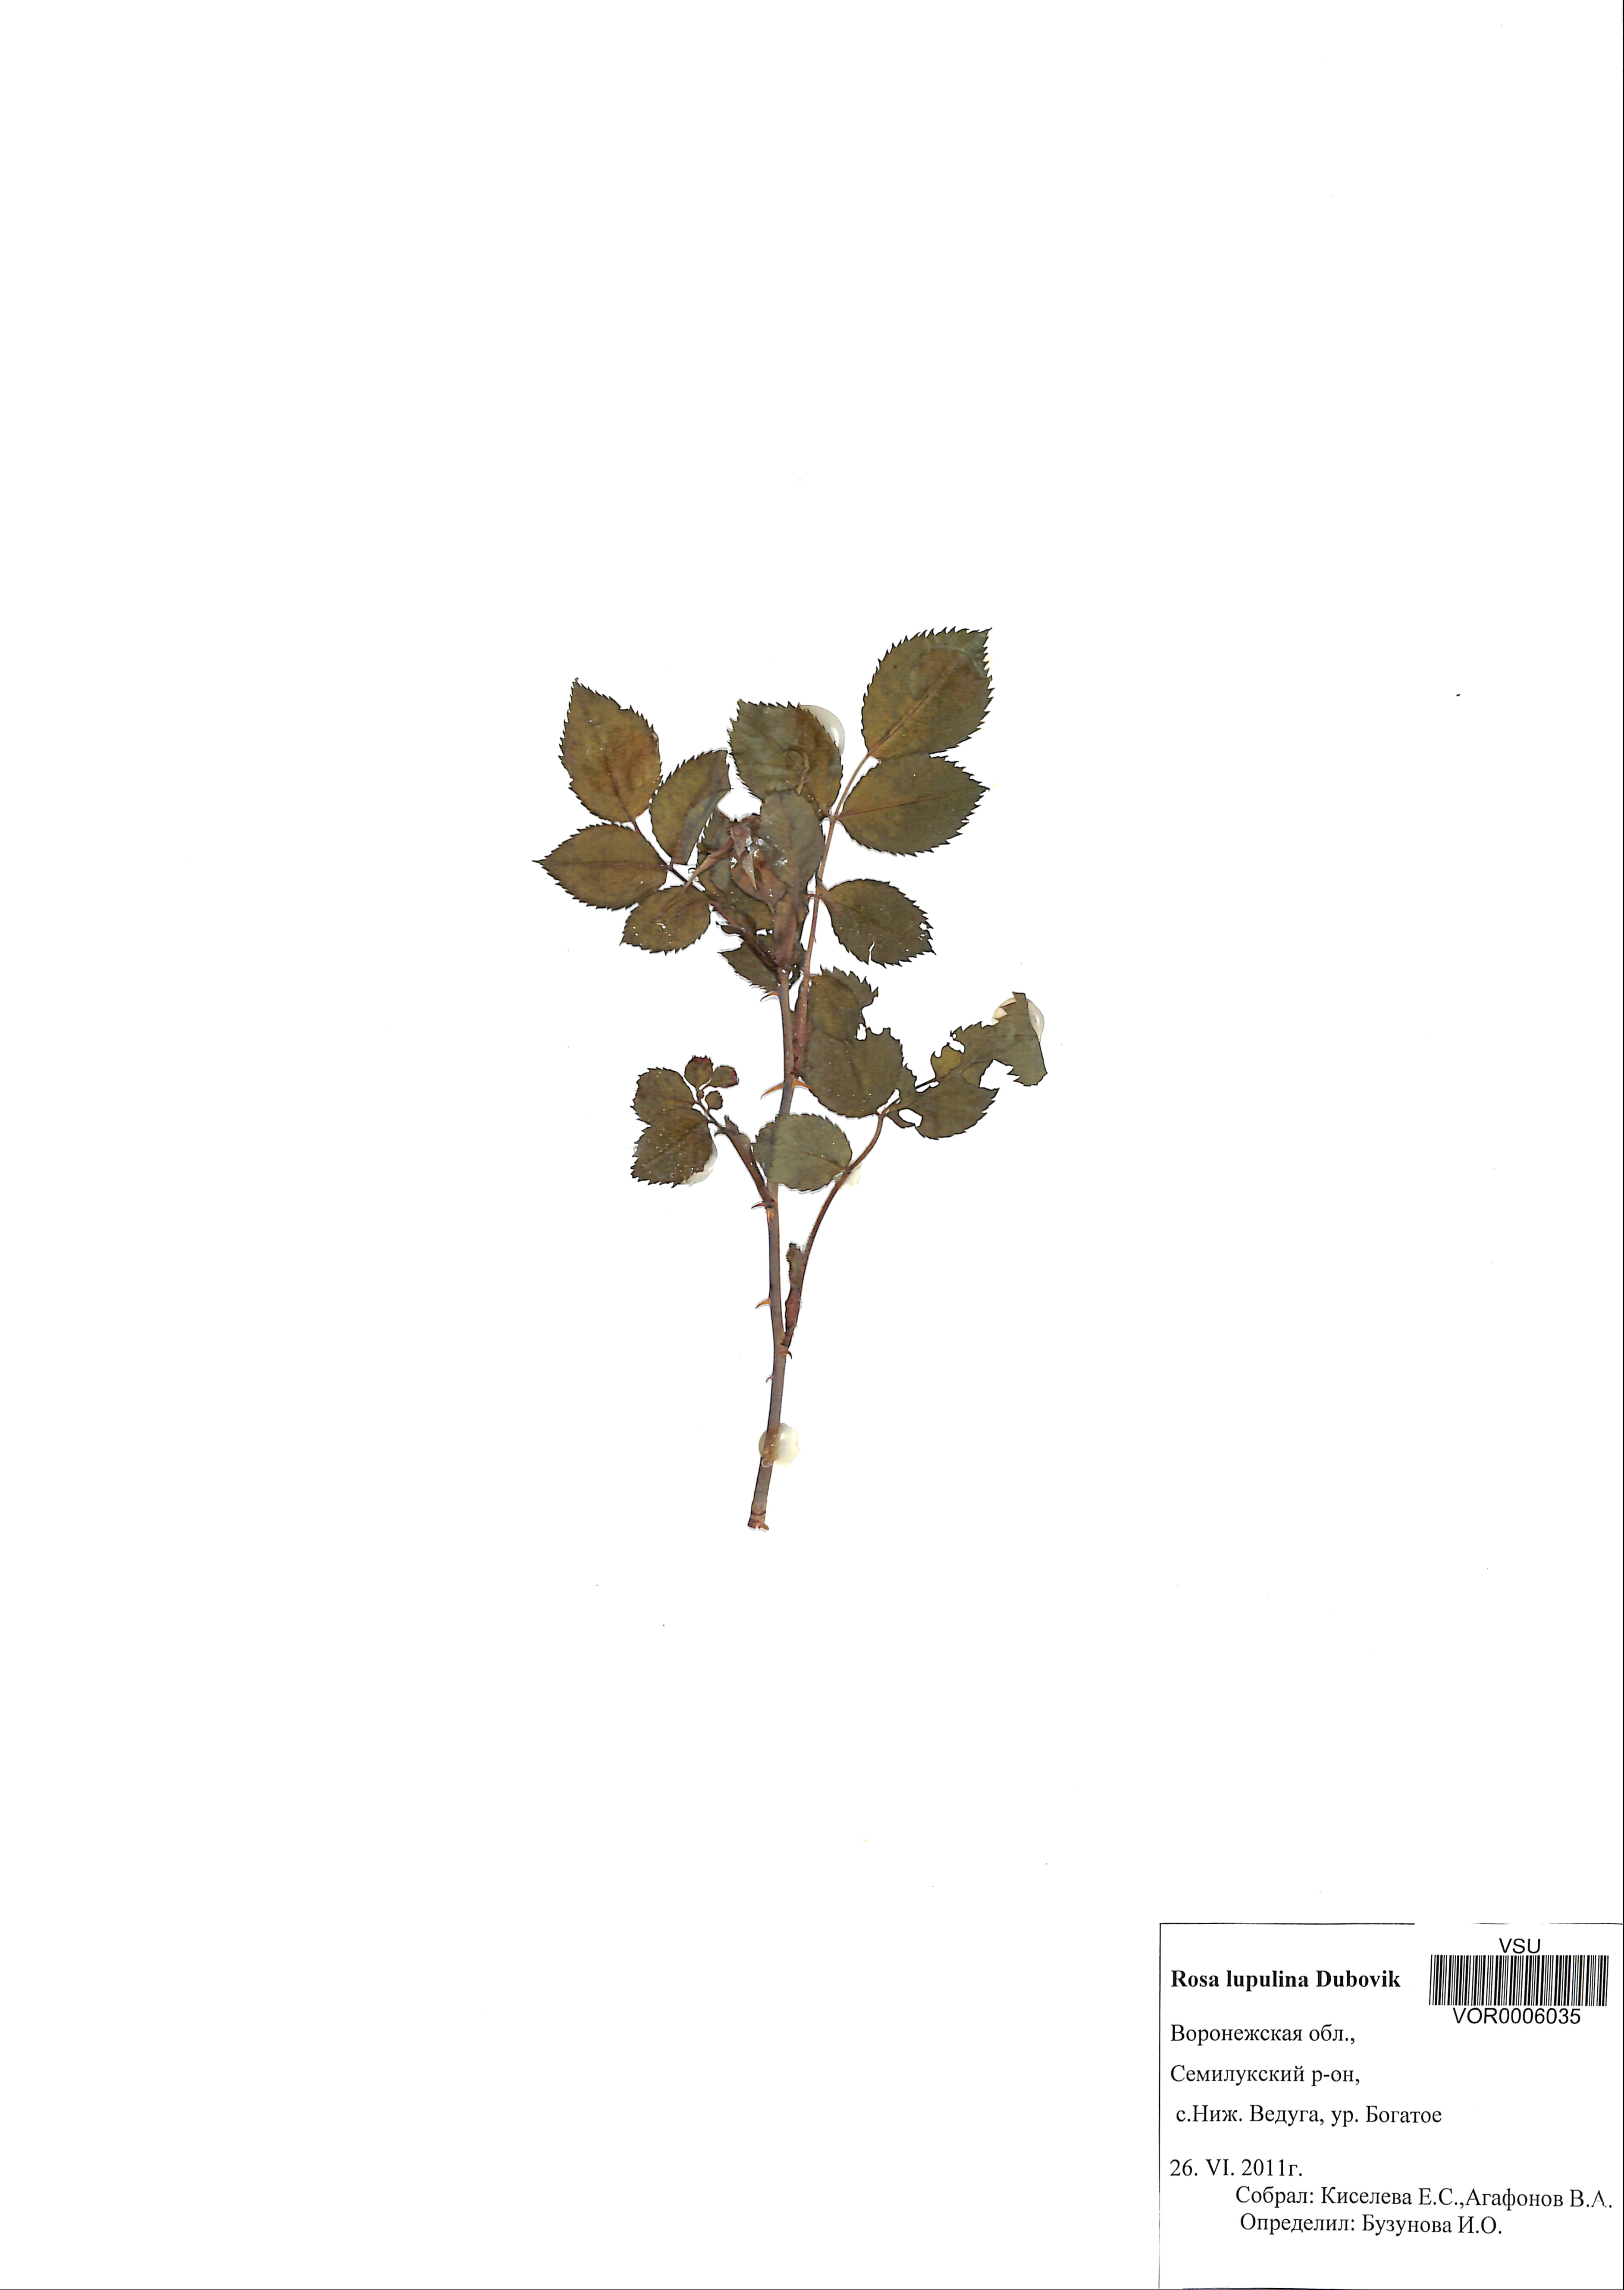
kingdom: Plantae
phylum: Tracheophyta
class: Magnoliopsida
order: Rosales
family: Rosaceae
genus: Rosa
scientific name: Rosa
